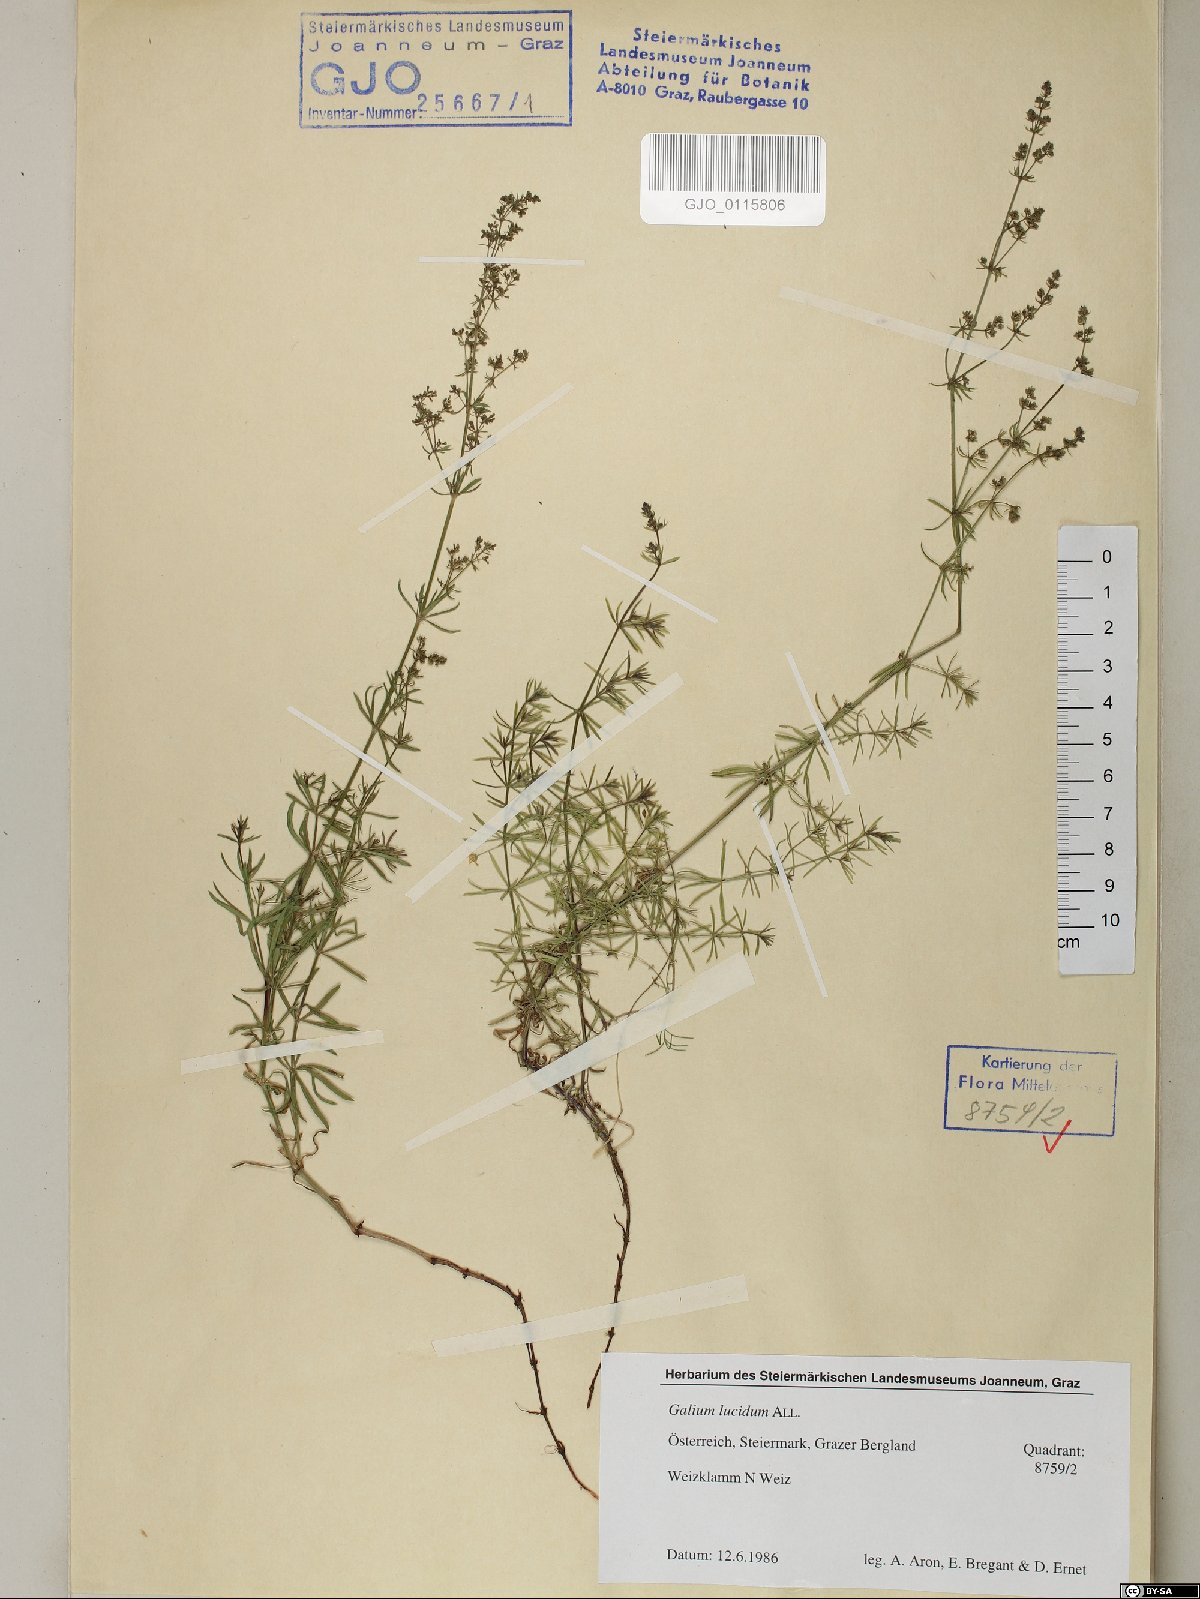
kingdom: Plantae
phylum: Tracheophyta
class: Magnoliopsida
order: Gentianales
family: Rubiaceae
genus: Galium
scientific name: Galium lucidum
